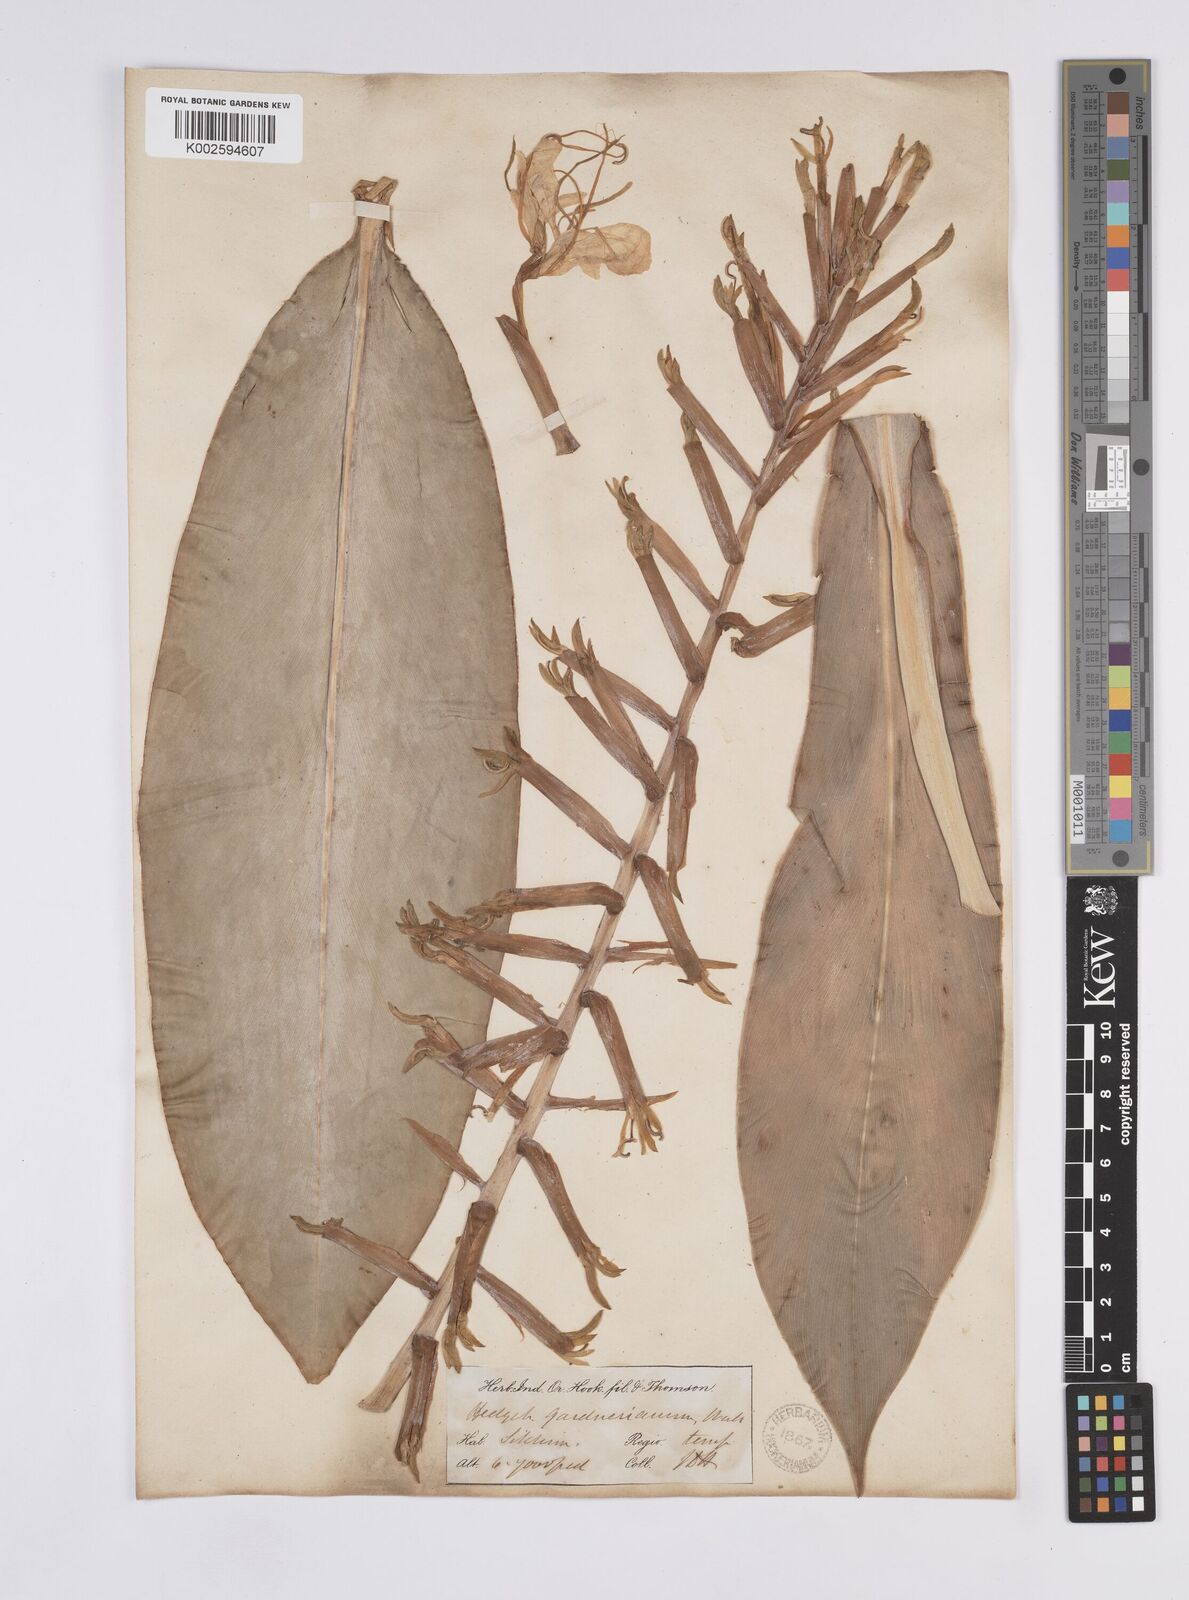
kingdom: Plantae
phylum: Tracheophyta
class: Liliopsida
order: Zingiberales
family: Zingiberaceae
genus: Hedychium
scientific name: Hedychium gardnerianum
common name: Himalayan ginger
